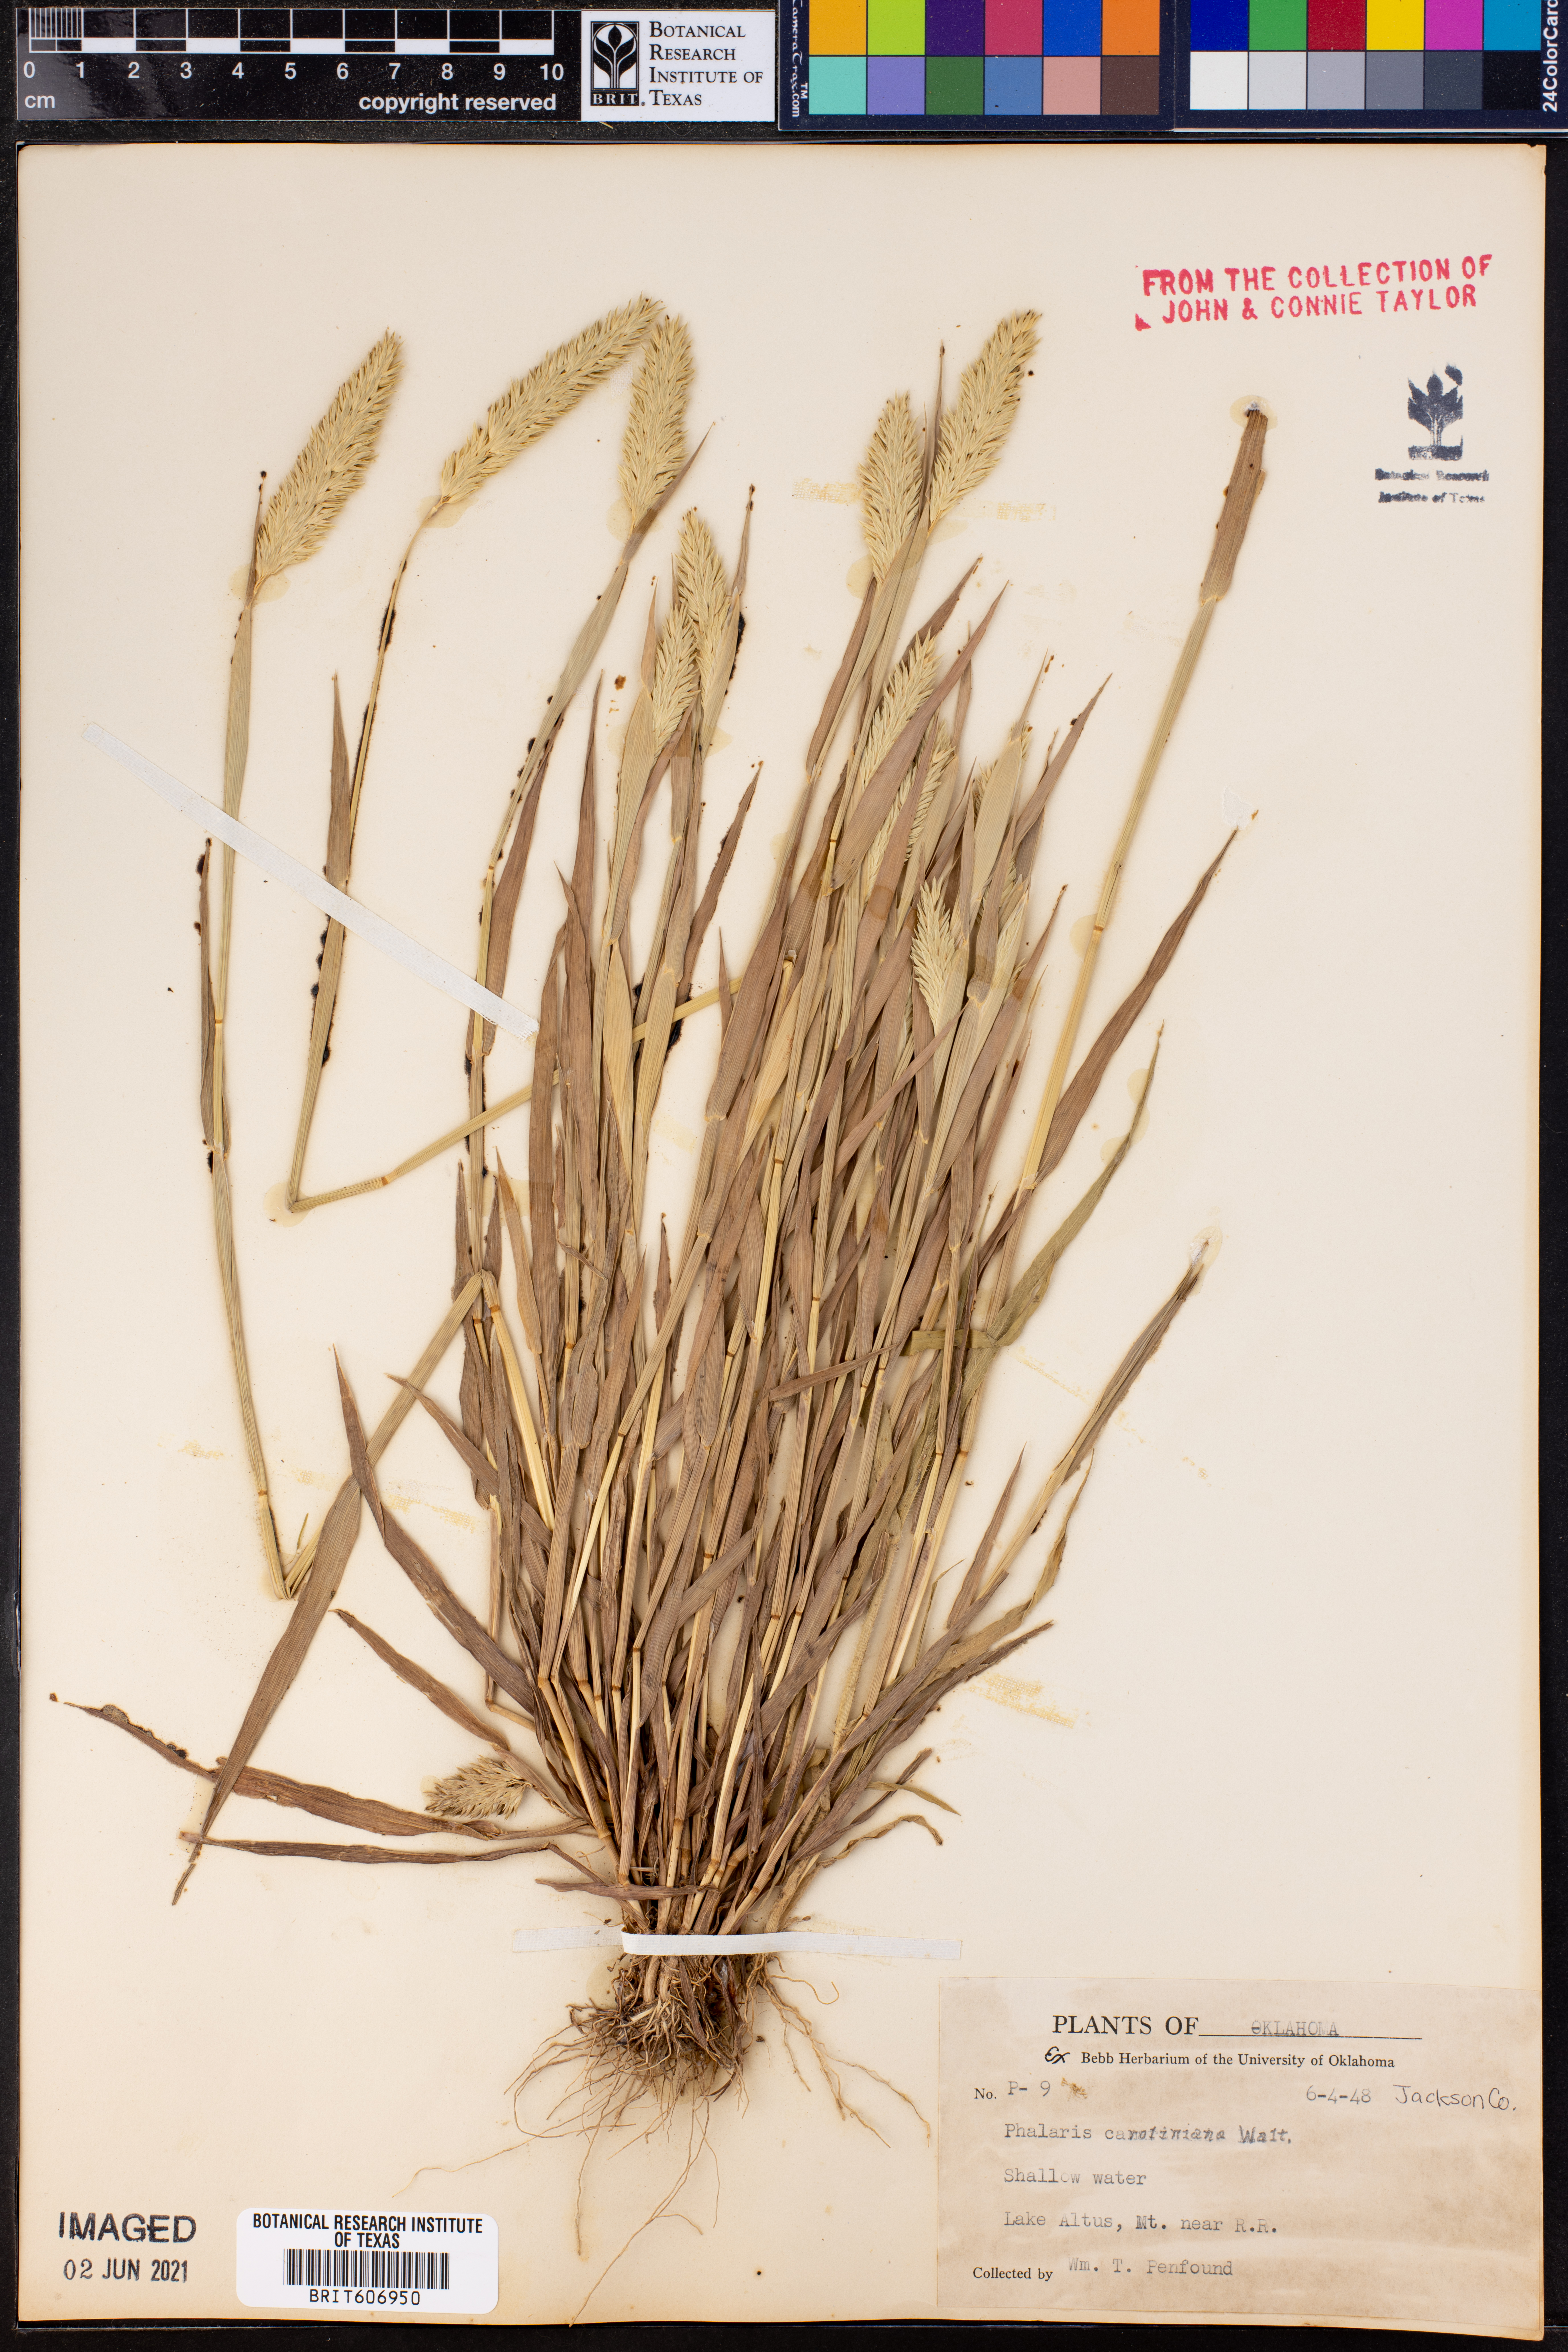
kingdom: Plantae
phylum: Tracheophyta
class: Liliopsida
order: Poales
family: Poaceae
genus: Phalaris
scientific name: Phalaris caroliniana
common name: May grass
